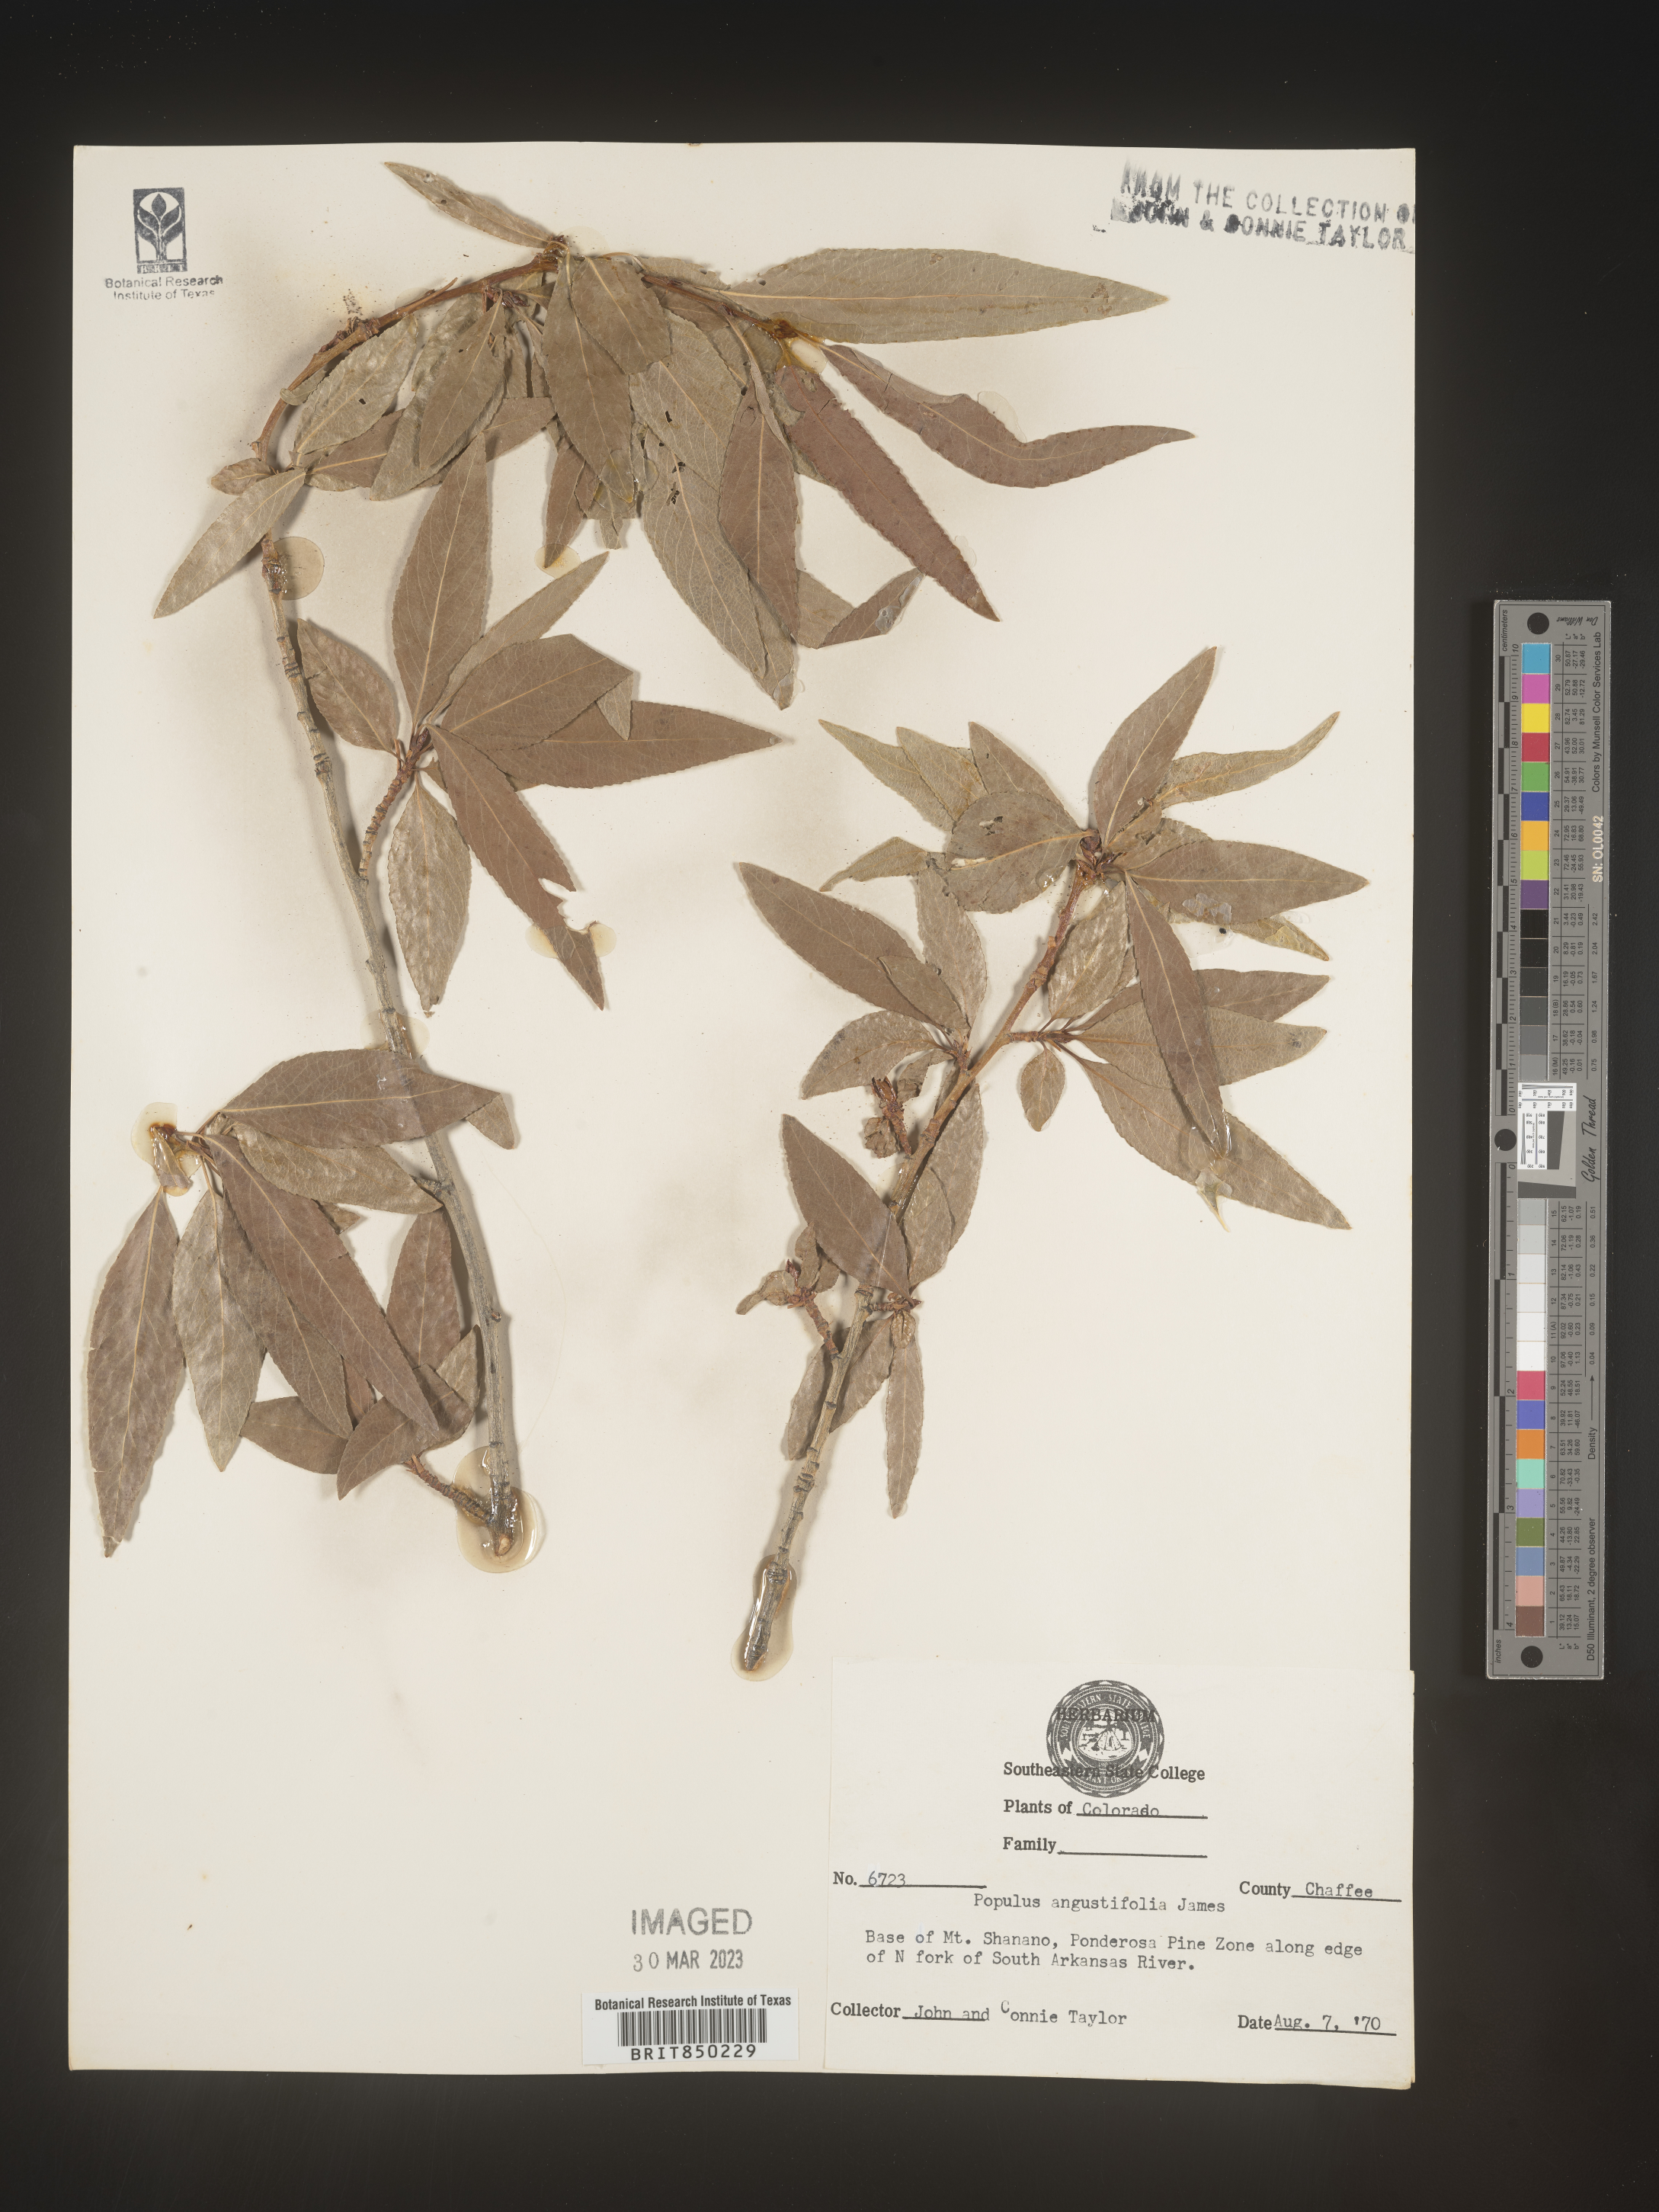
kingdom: Plantae
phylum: Tracheophyta
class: Magnoliopsida
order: Malpighiales
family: Salicaceae
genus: Populus
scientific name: Populus angustifolia
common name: Willow cottonwood
